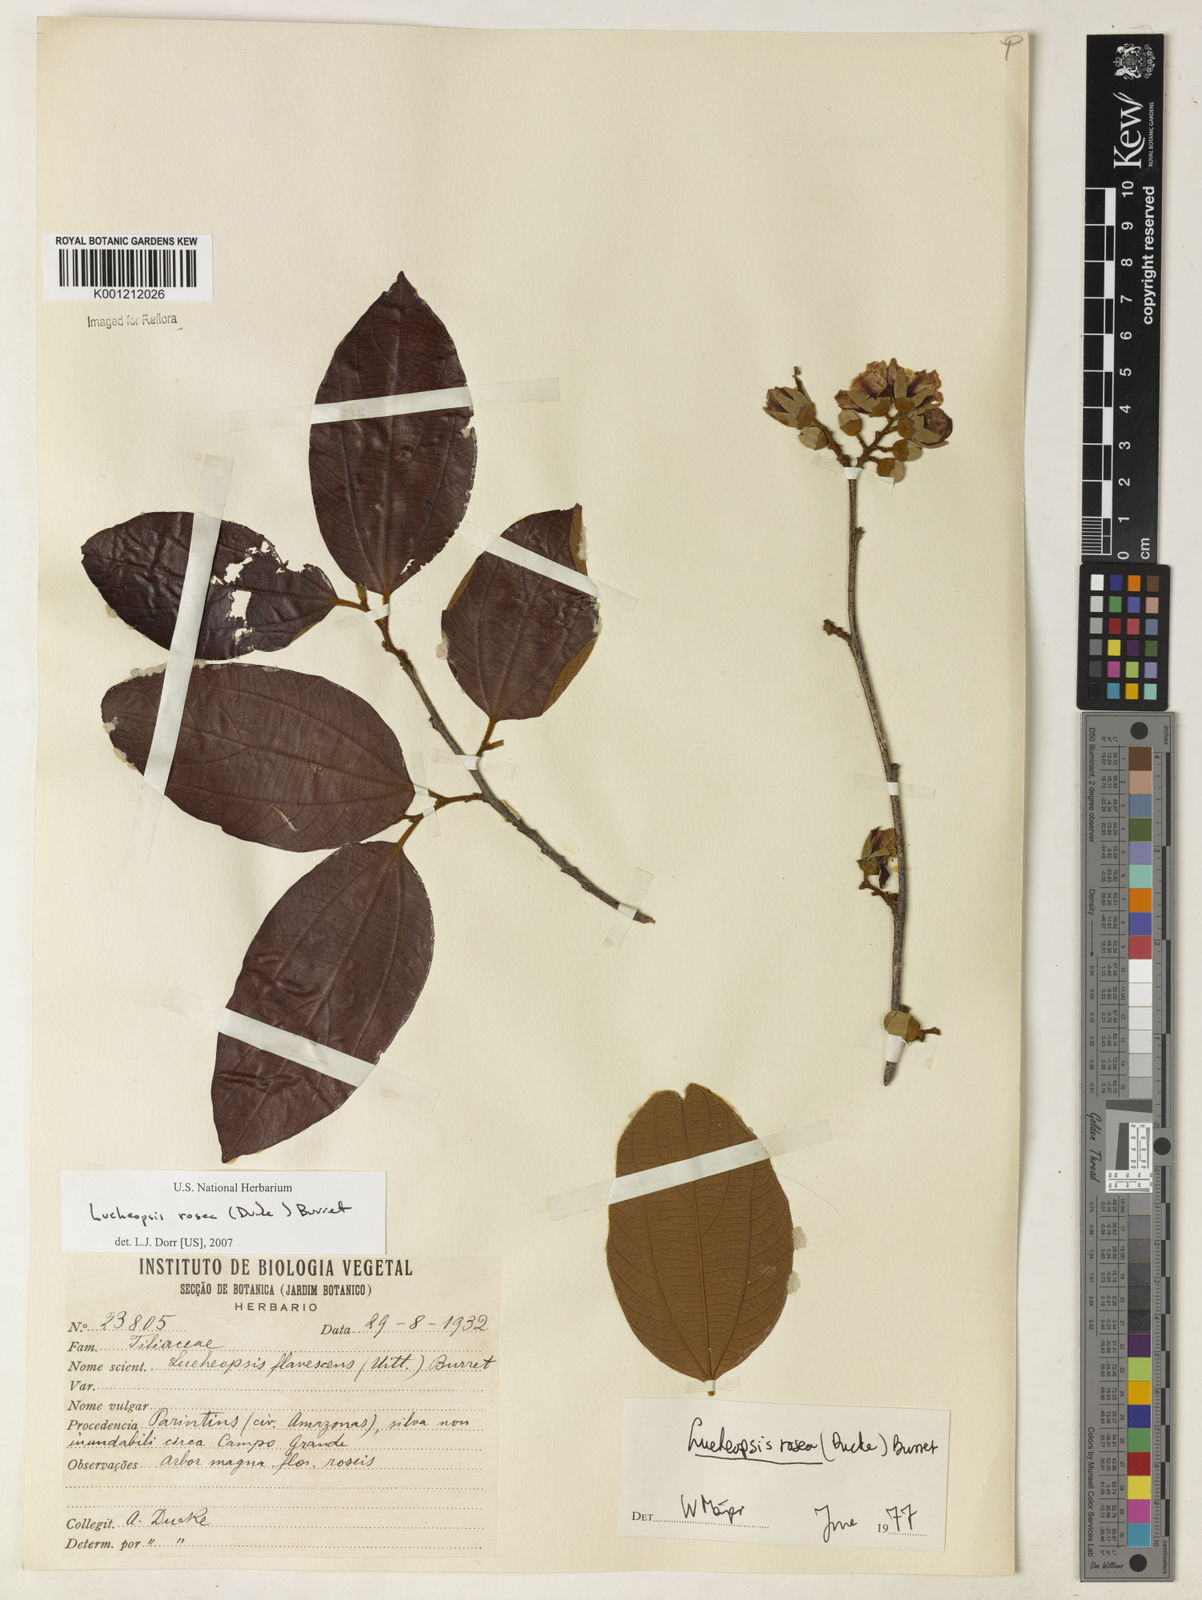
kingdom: Plantae
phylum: Tracheophyta
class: Magnoliopsida
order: Malvales
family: Malvaceae
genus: Lueheopsis
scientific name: Lueheopsis rosea
